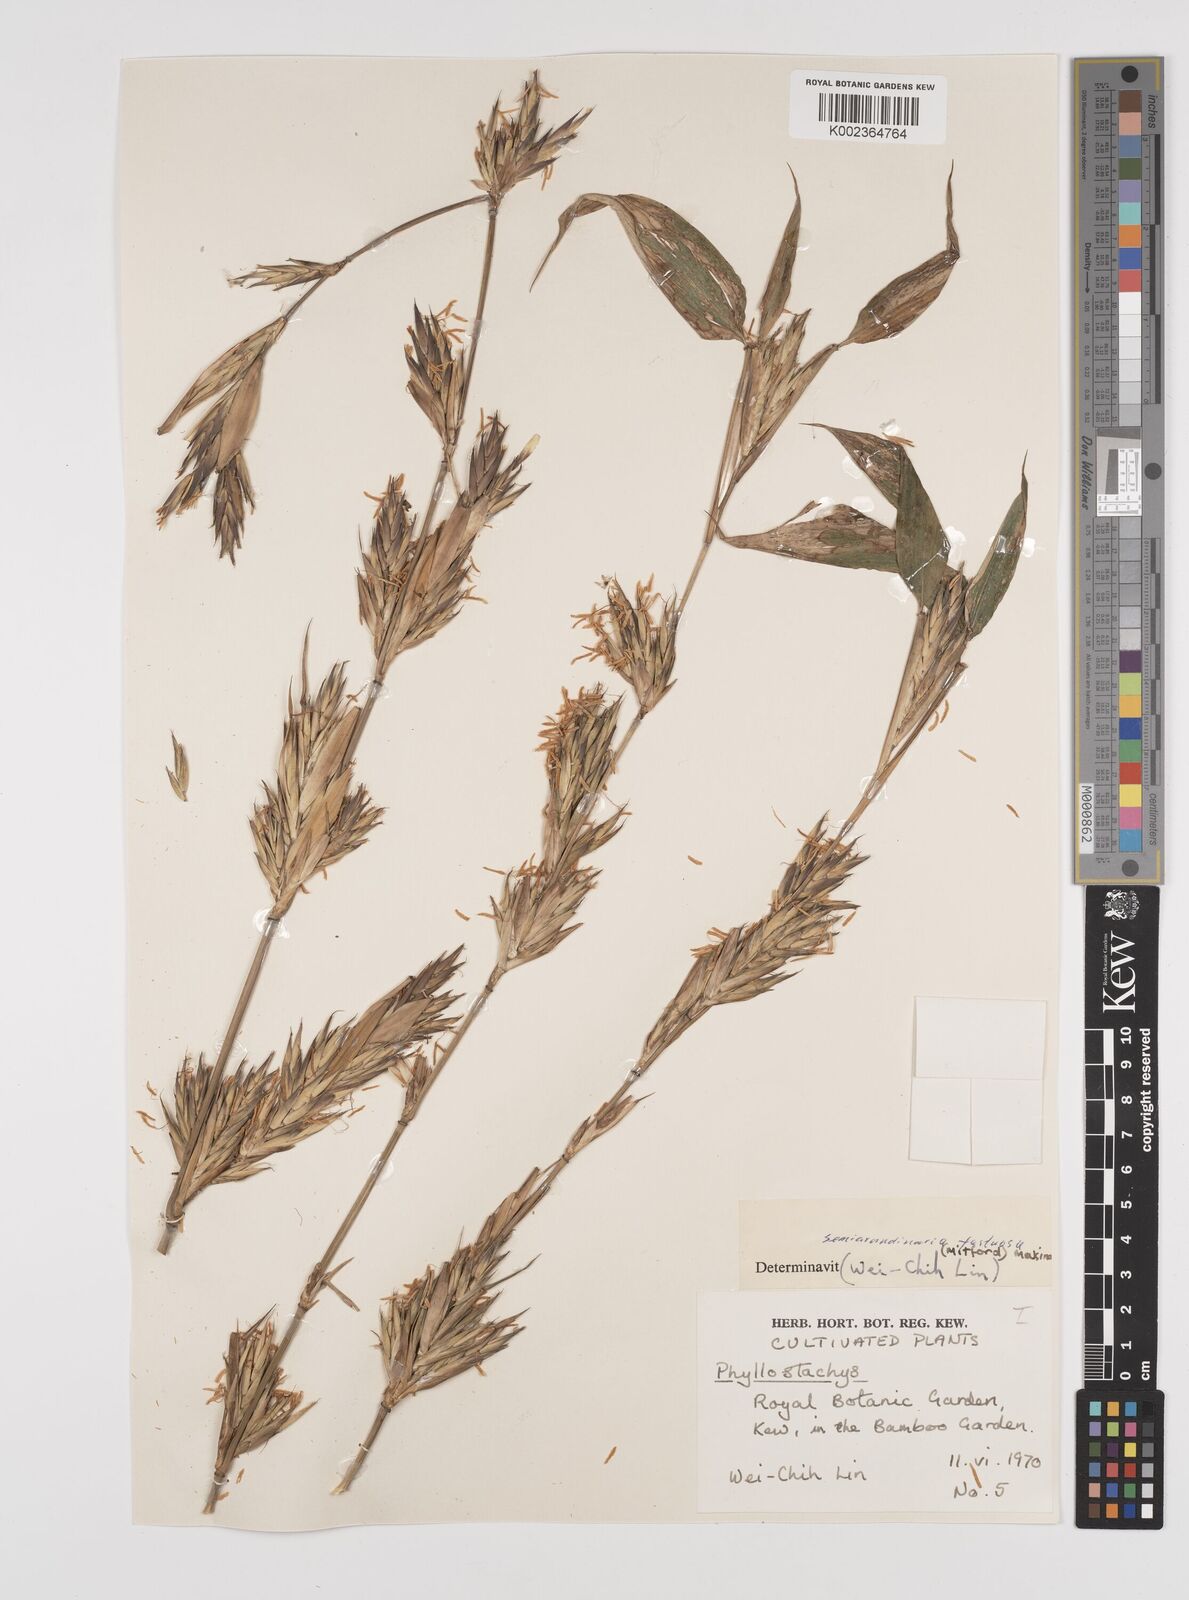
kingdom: Plantae
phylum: Tracheophyta
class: Liliopsida
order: Poales
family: Poaceae
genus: Semiarundinaria
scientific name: Semiarundinaria fastuosa
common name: Narihira bamboo
